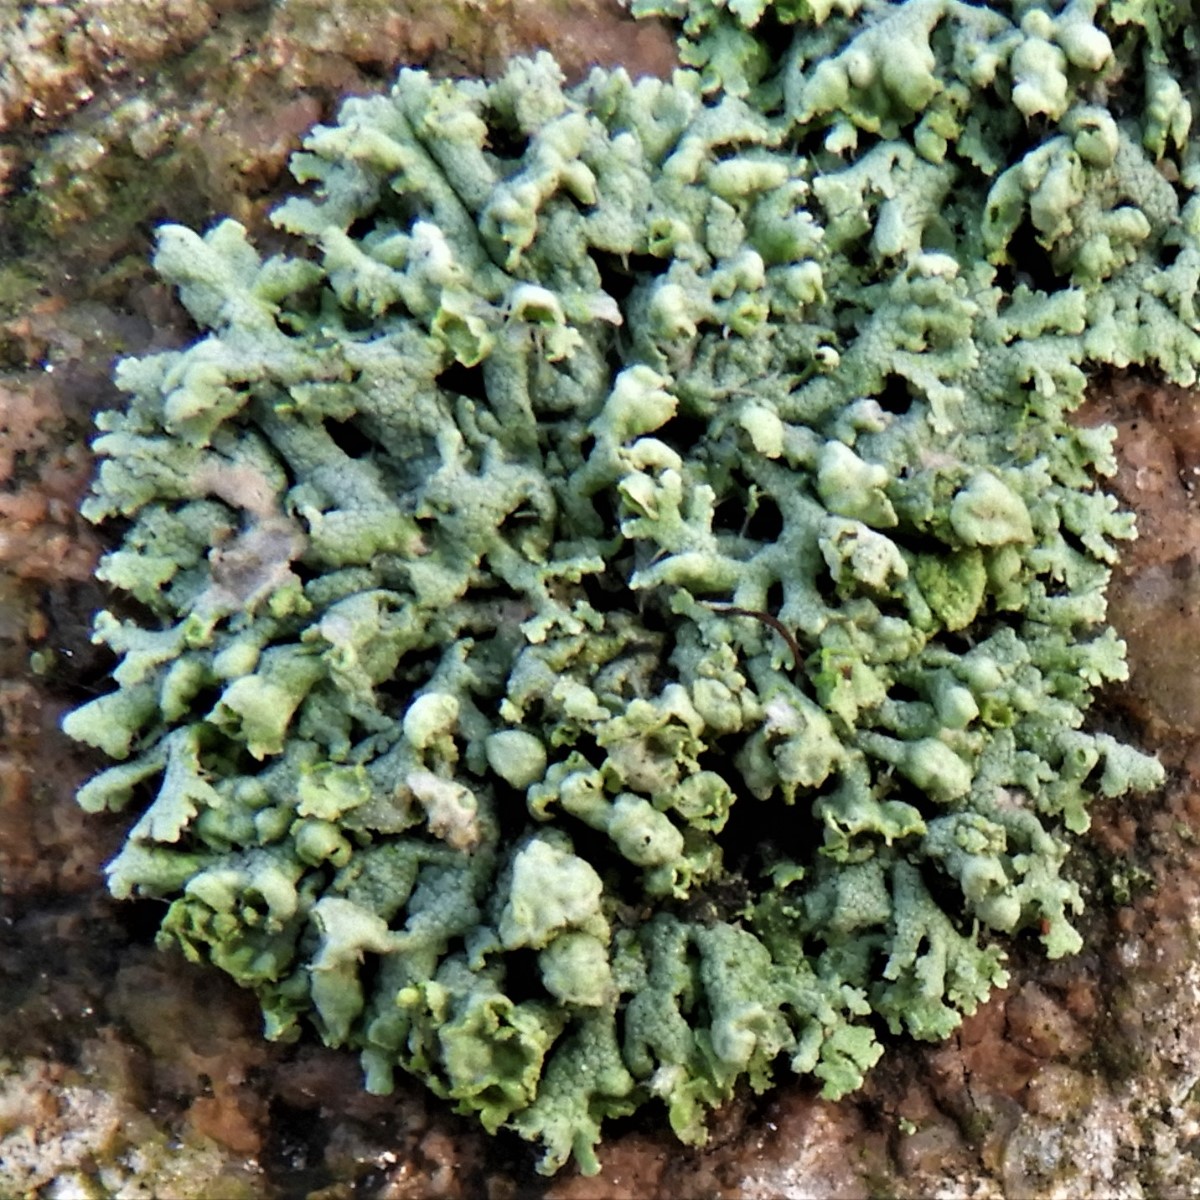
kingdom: Fungi
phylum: Ascomycota
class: Lecanoromycetes
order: Caliciales
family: Physciaceae
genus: Physcia
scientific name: Physcia adscendens
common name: hætte-rosetlav
